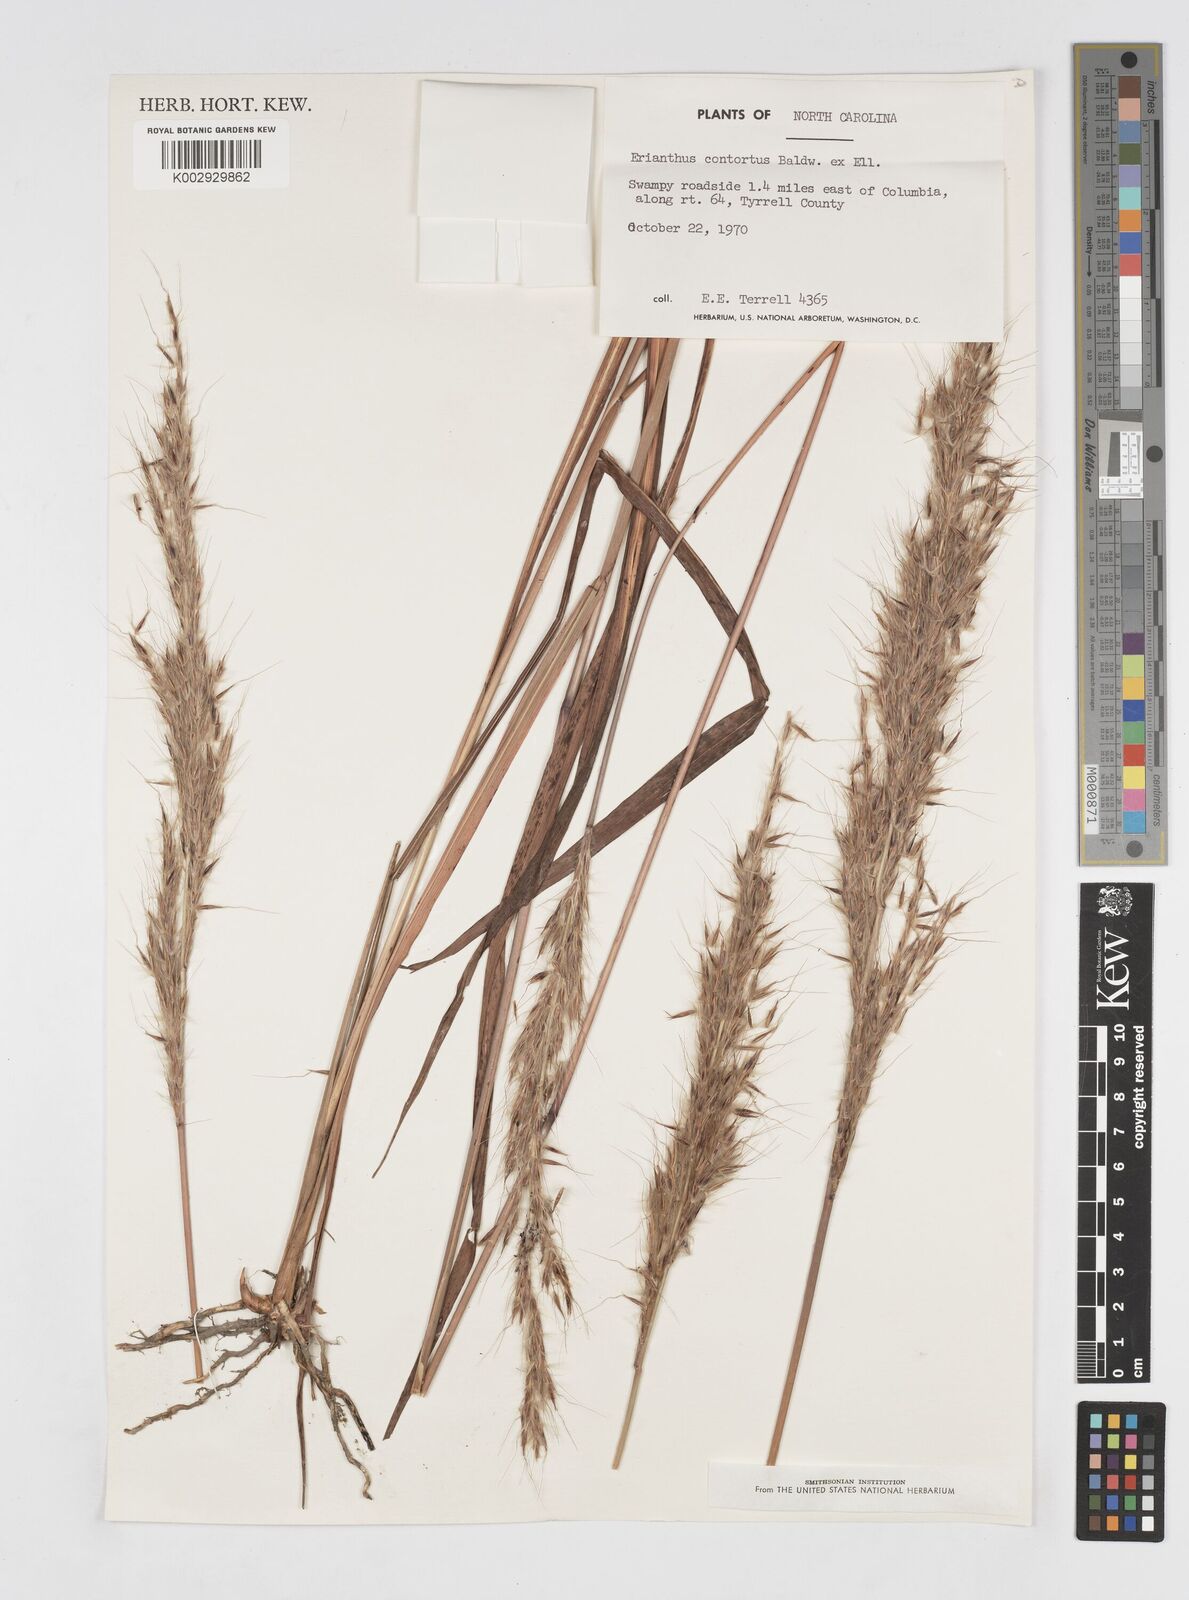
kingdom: Plantae
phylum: Tracheophyta
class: Liliopsida
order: Poales
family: Poaceae
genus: Erianthus
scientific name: Erianthus contortus
